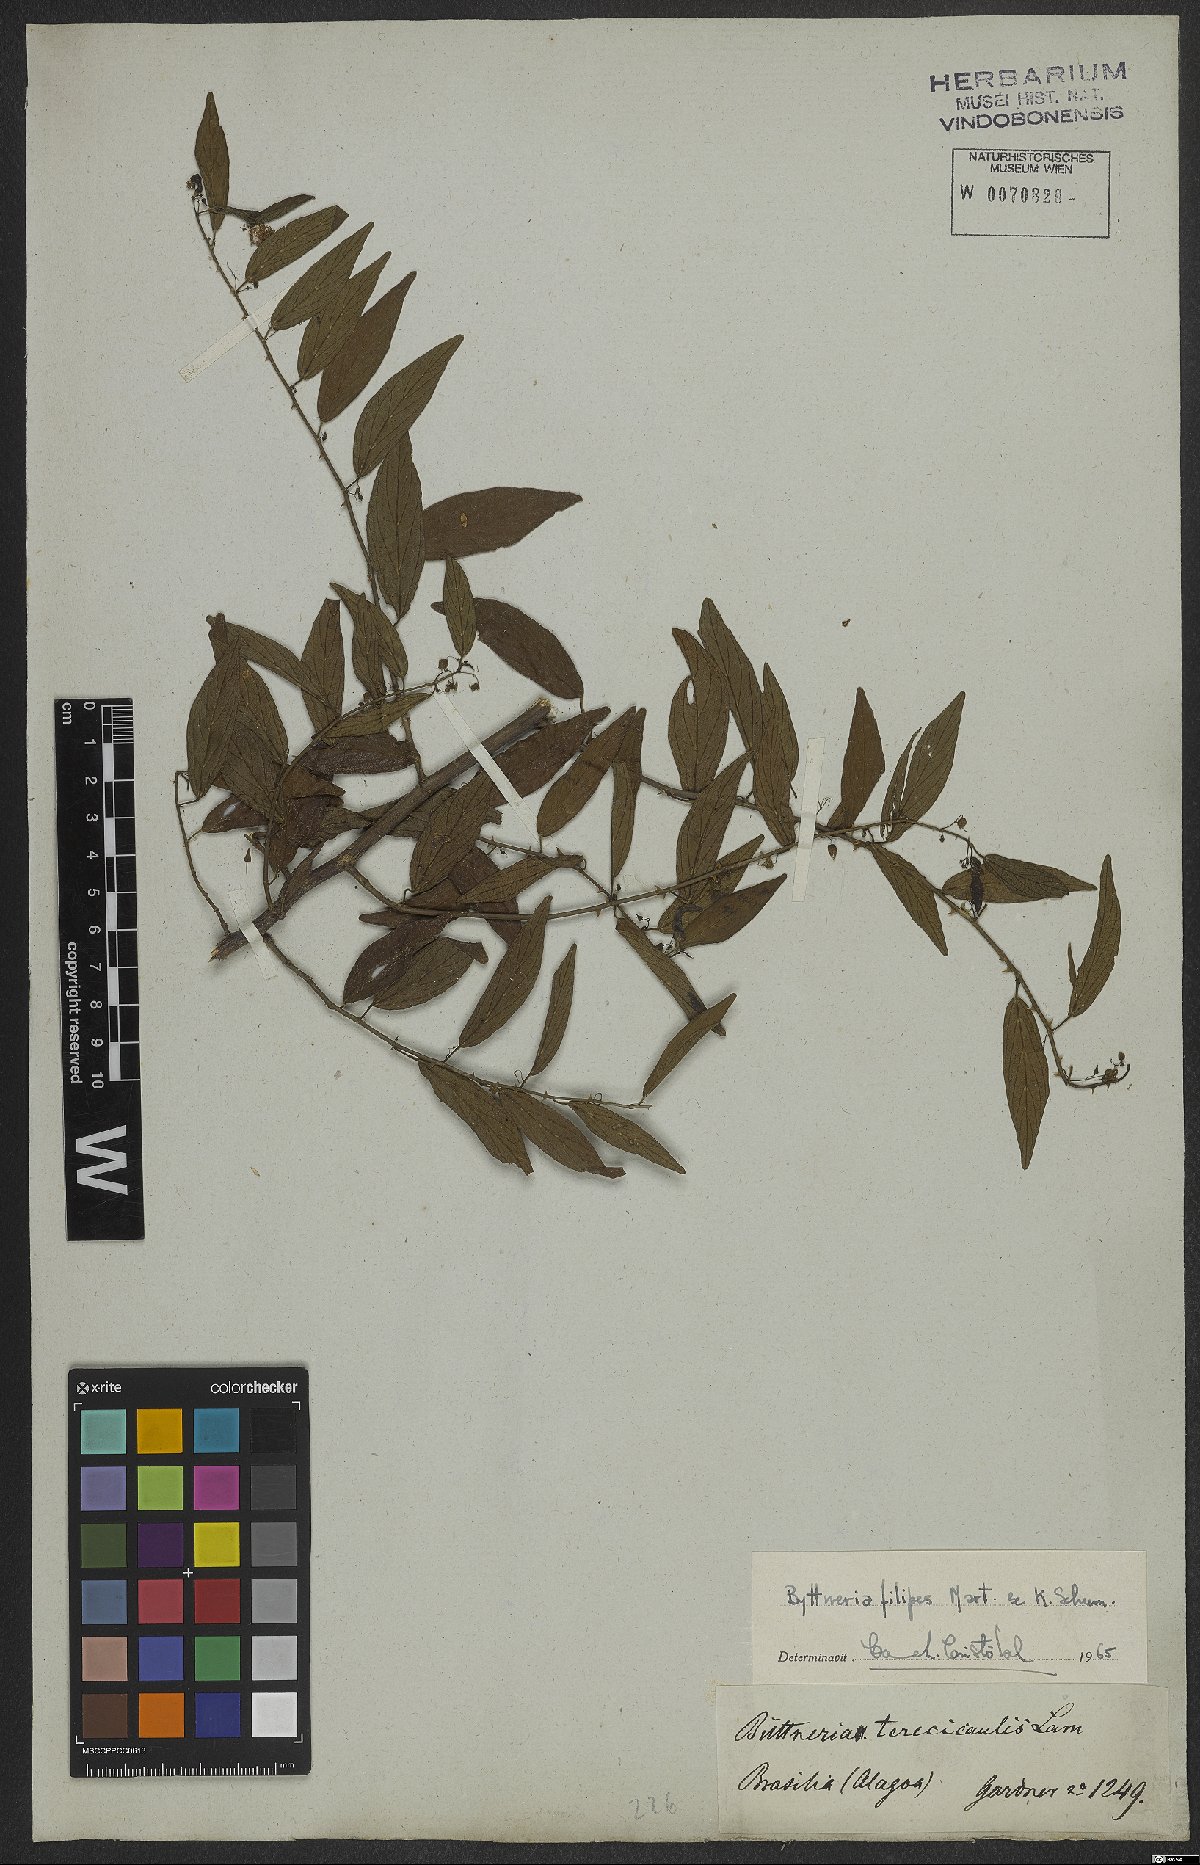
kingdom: Plantae
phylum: Tracheophyta
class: Magnoliopsida
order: Malvales
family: Malvaceae
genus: Byttneria
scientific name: Byttneria filipes
